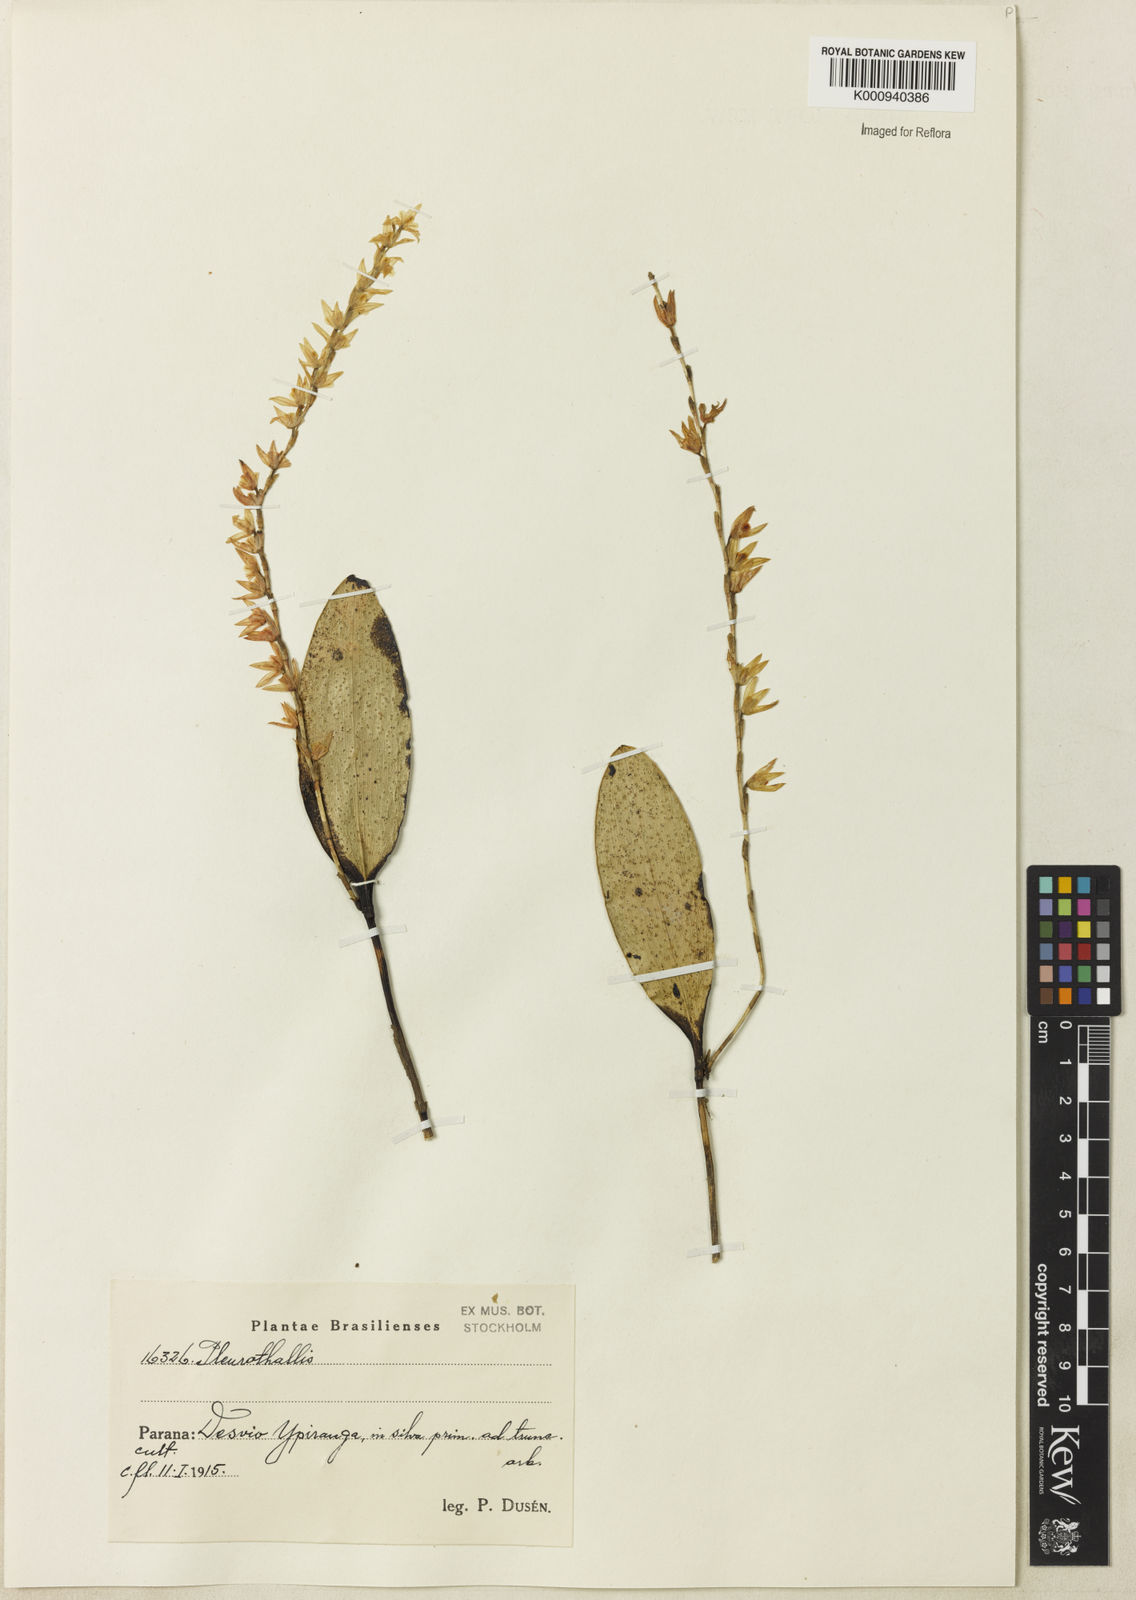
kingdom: Plantae
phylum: Tracheophyta
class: Liliopsida
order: Asparagales
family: Orchidaceae
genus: Pleurothallis
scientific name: Pleurothallis
